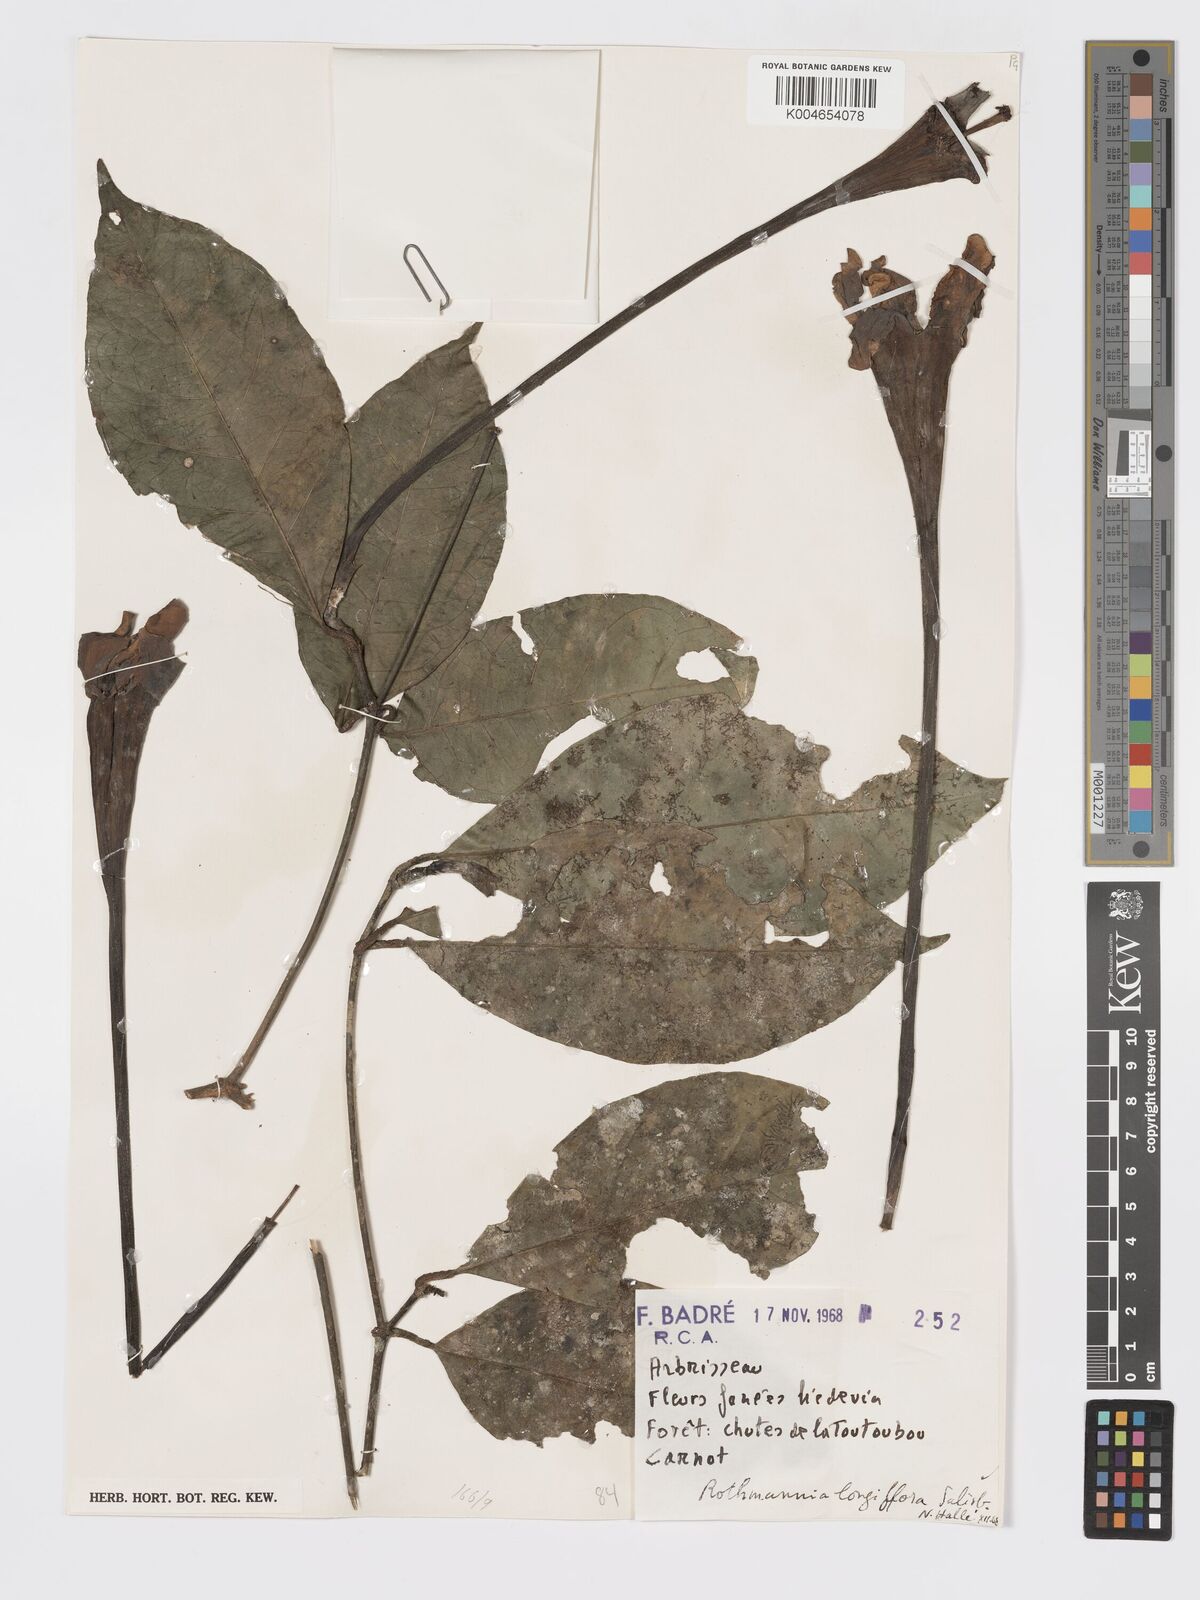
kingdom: Plantae
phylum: Tracheophyta
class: Magnoliopsida
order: Gentianales
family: Rubiaceae
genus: Rothmannia
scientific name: Rothmannia longiflora
